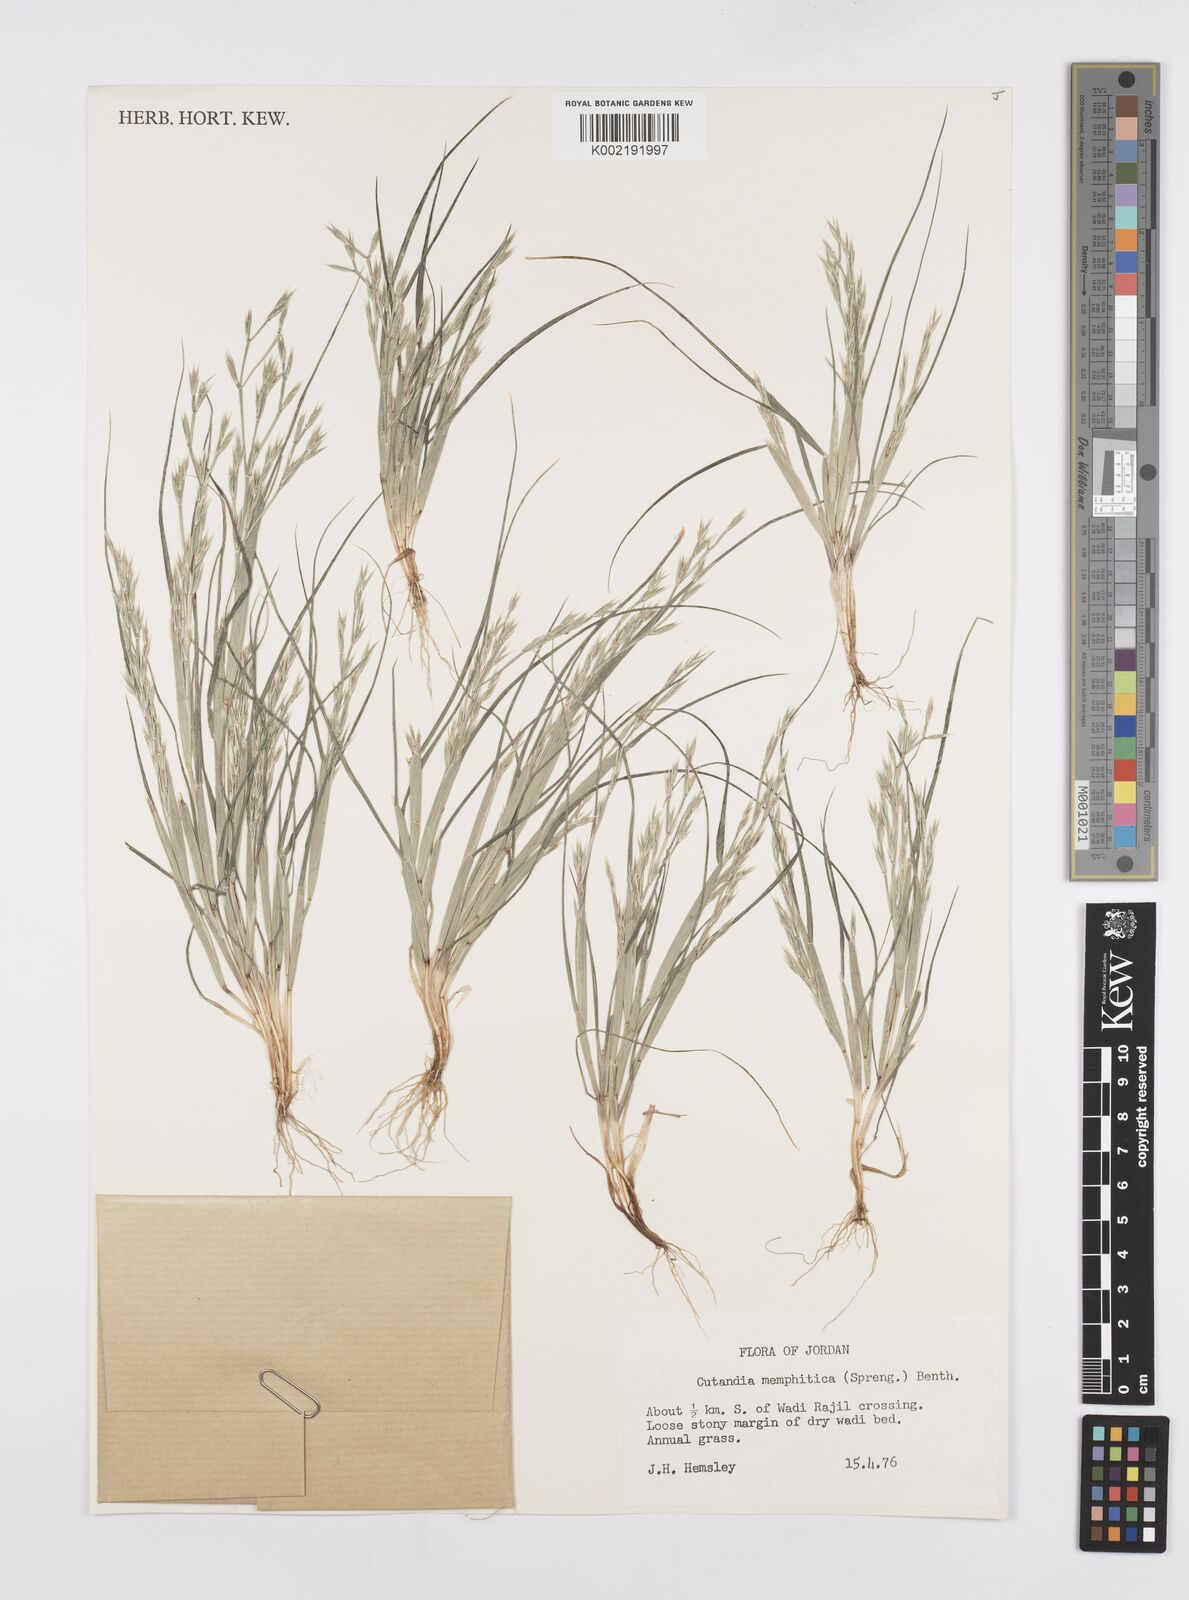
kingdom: Plantae
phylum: Tracheophyta
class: Liliopsida
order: Poales
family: Poaceae
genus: Cutandia
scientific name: Cutandia memphitica
